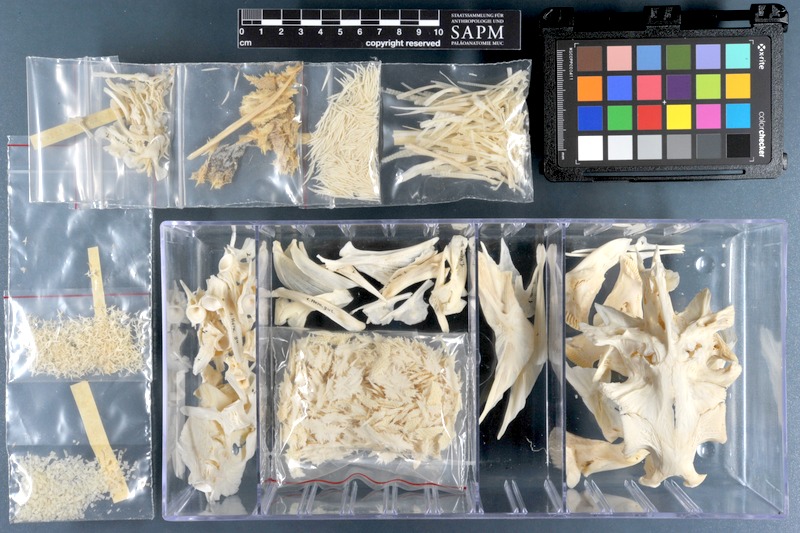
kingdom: Animalia
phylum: Chordata
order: Tetraodontiformes
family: Tetraodontidae
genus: Ephippion
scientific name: Ephippion guttifer
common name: Common puffer
